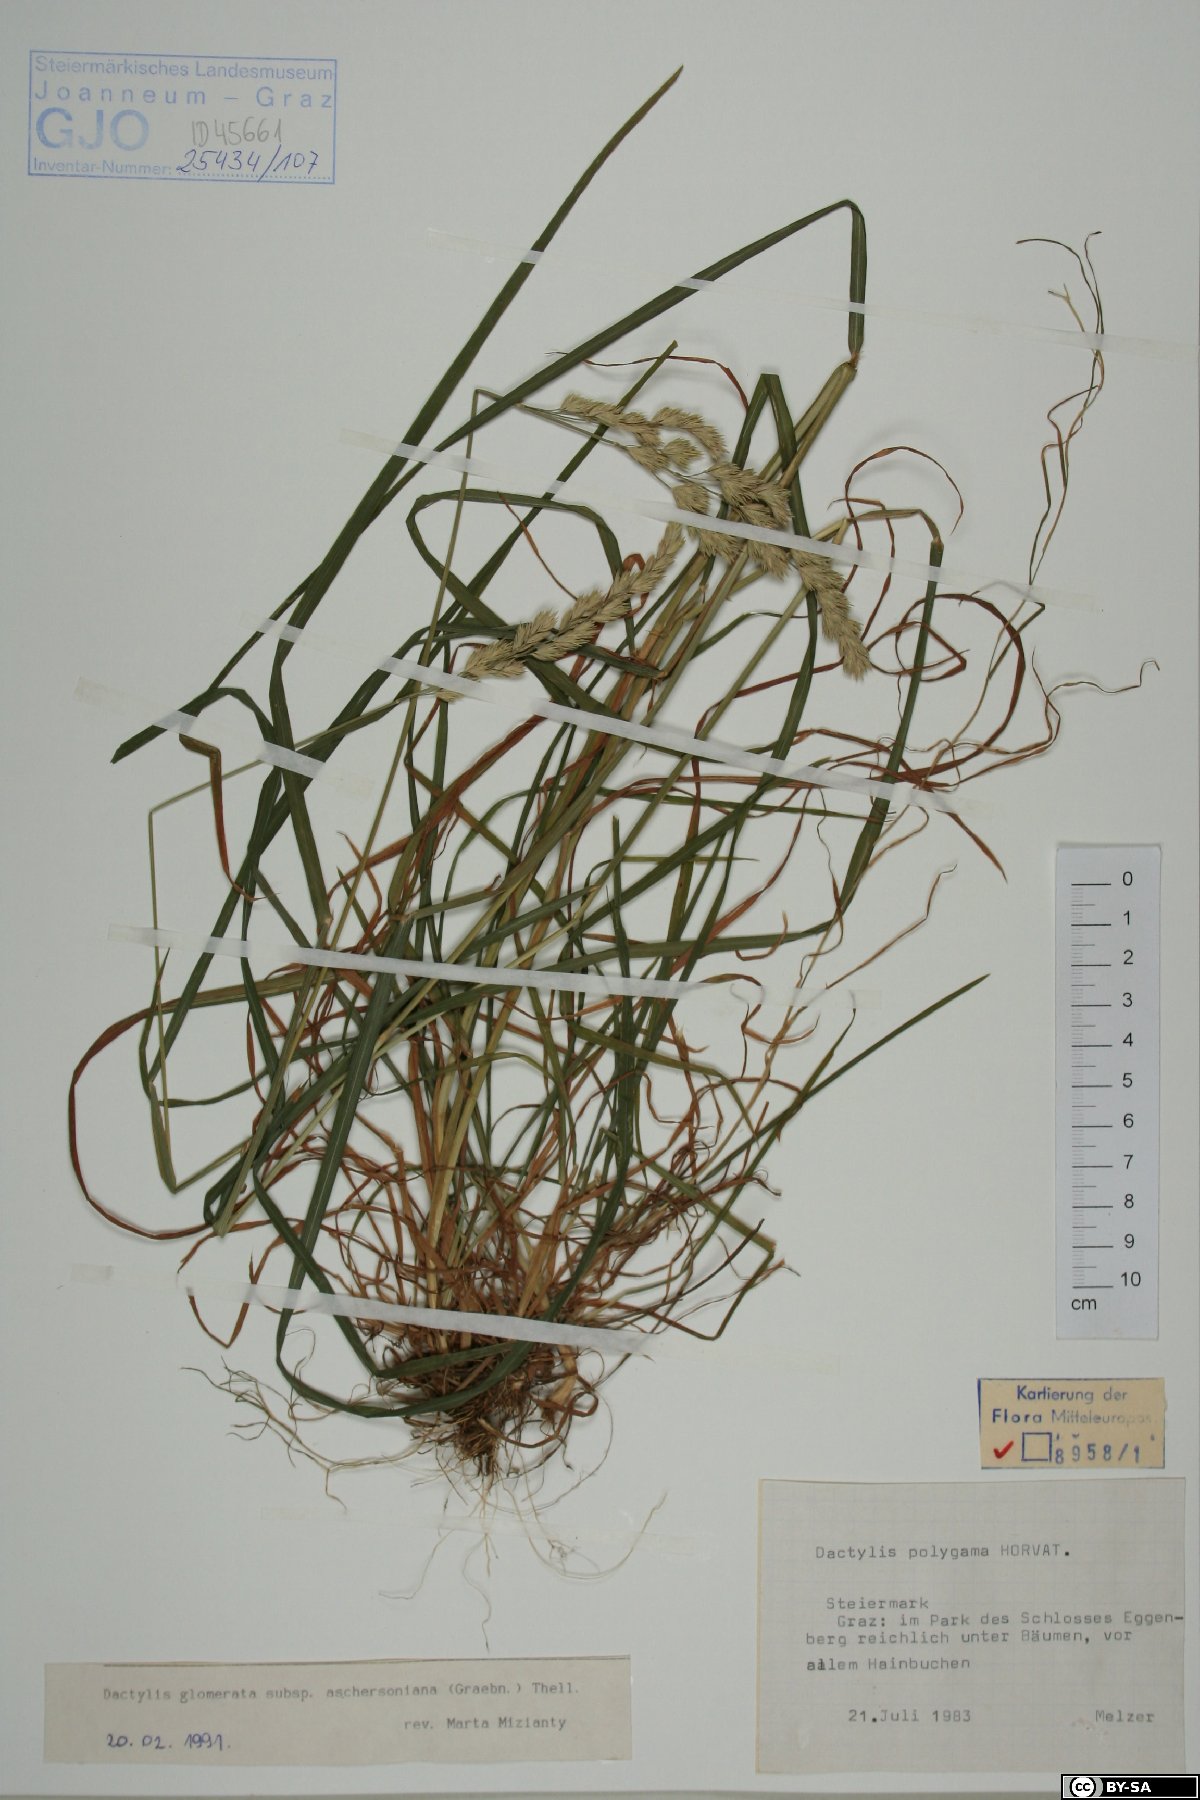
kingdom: Plantae
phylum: Tracheophyta
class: Liliopsida
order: Poales
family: Poaceae
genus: Dactylis
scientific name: Dactylis glomerata
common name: Orchardgrass
